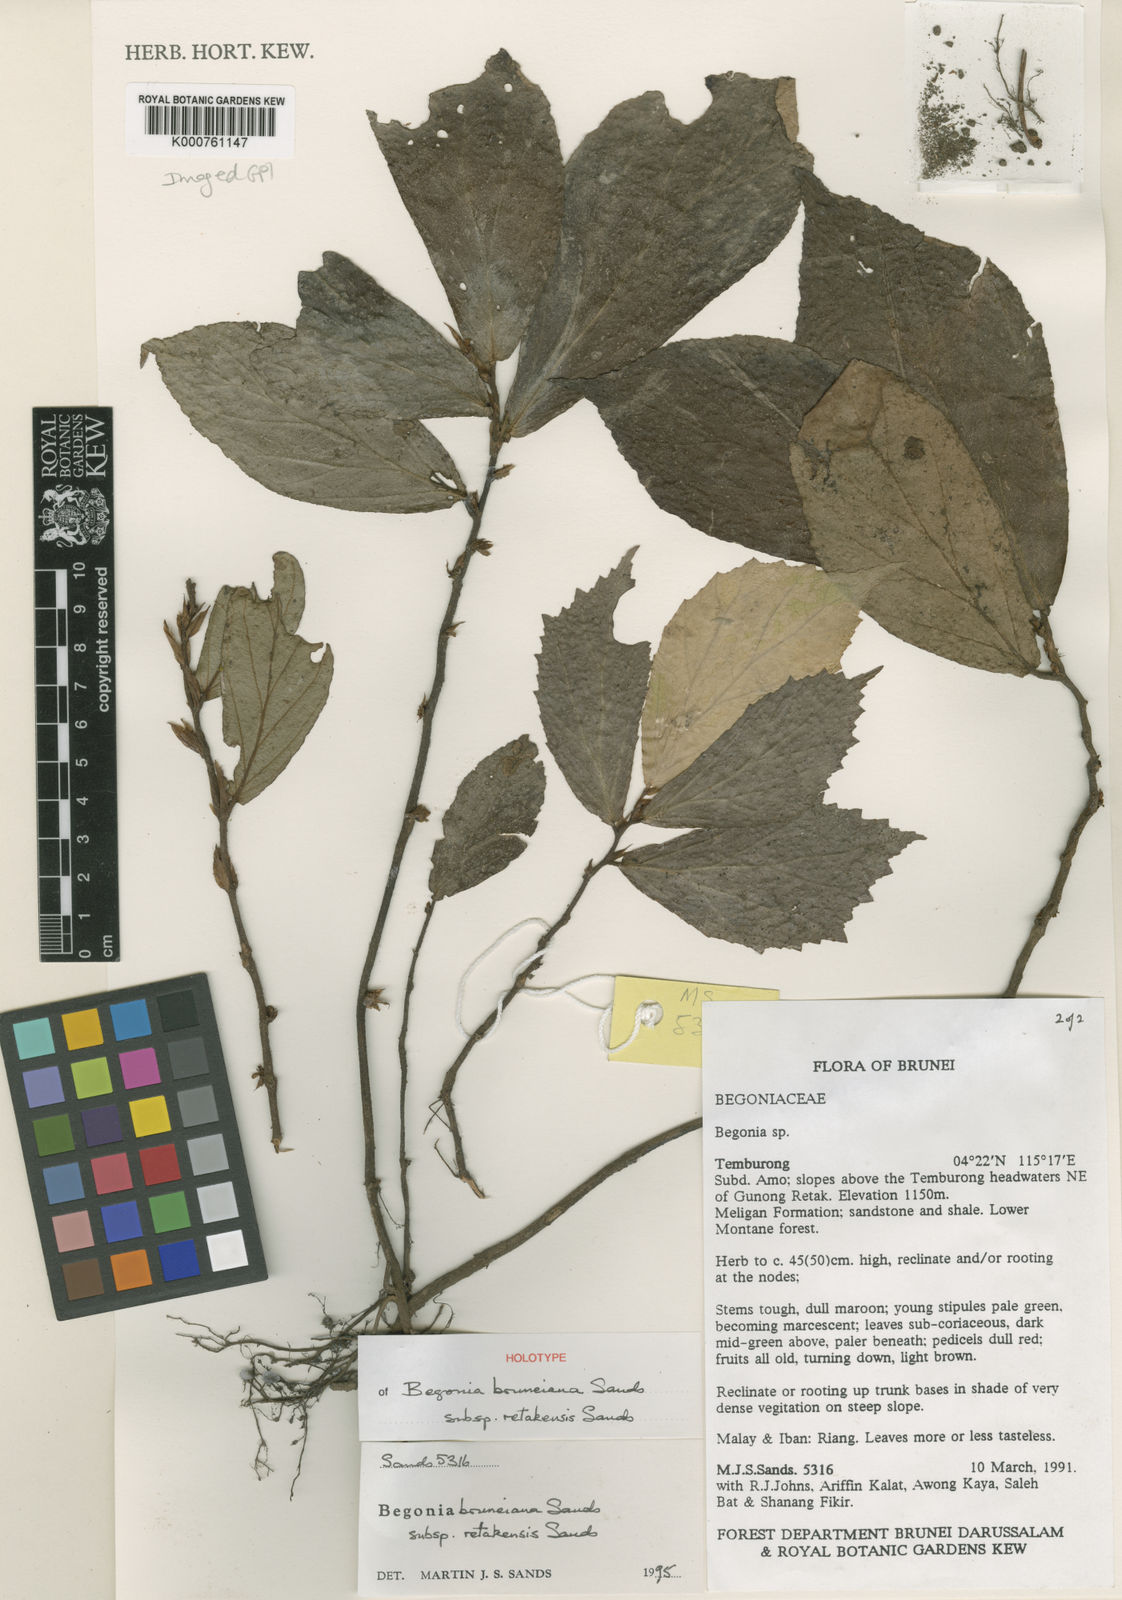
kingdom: Plantae
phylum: Tracheophyta
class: Magnoliopsida
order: Cucurbitales
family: Begoniaceae
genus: Begonia
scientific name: Begonia retakensis
